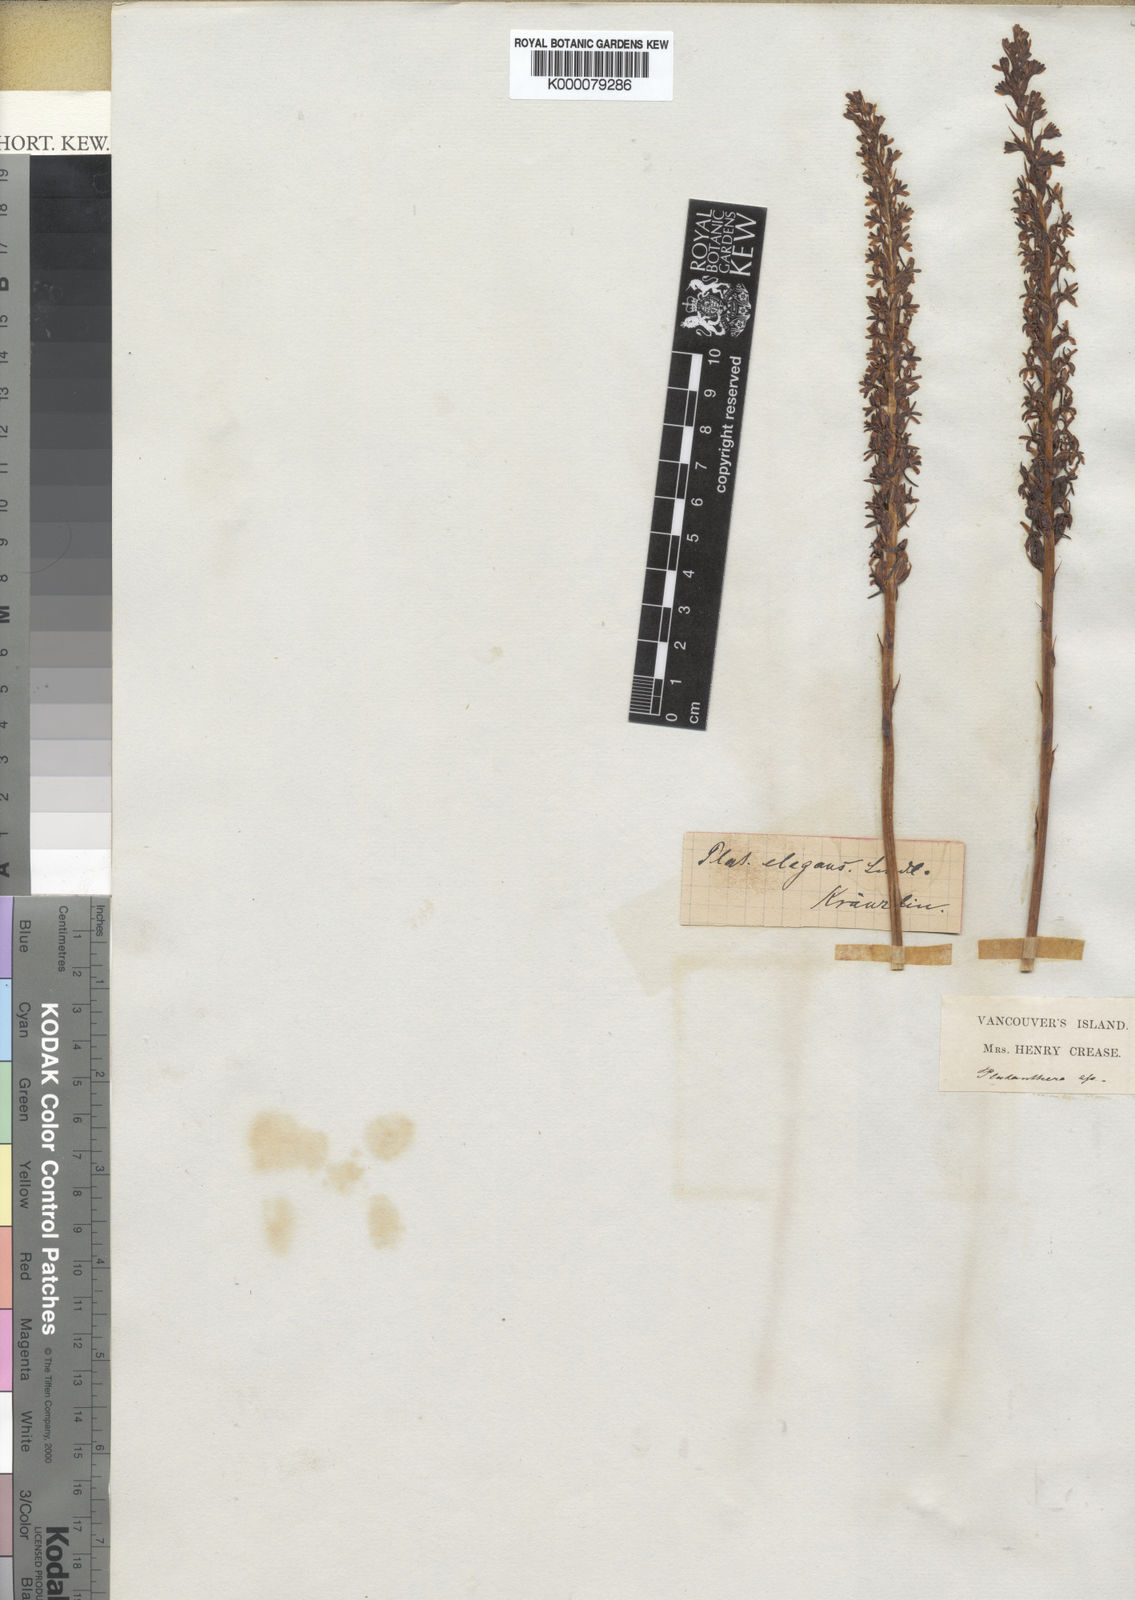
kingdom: Plantae
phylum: Tracheophyta
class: Liliopsida
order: Asparagales
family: Orchidaceae
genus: Platanthera
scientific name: Platanthera elegans
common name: Coast piperia
